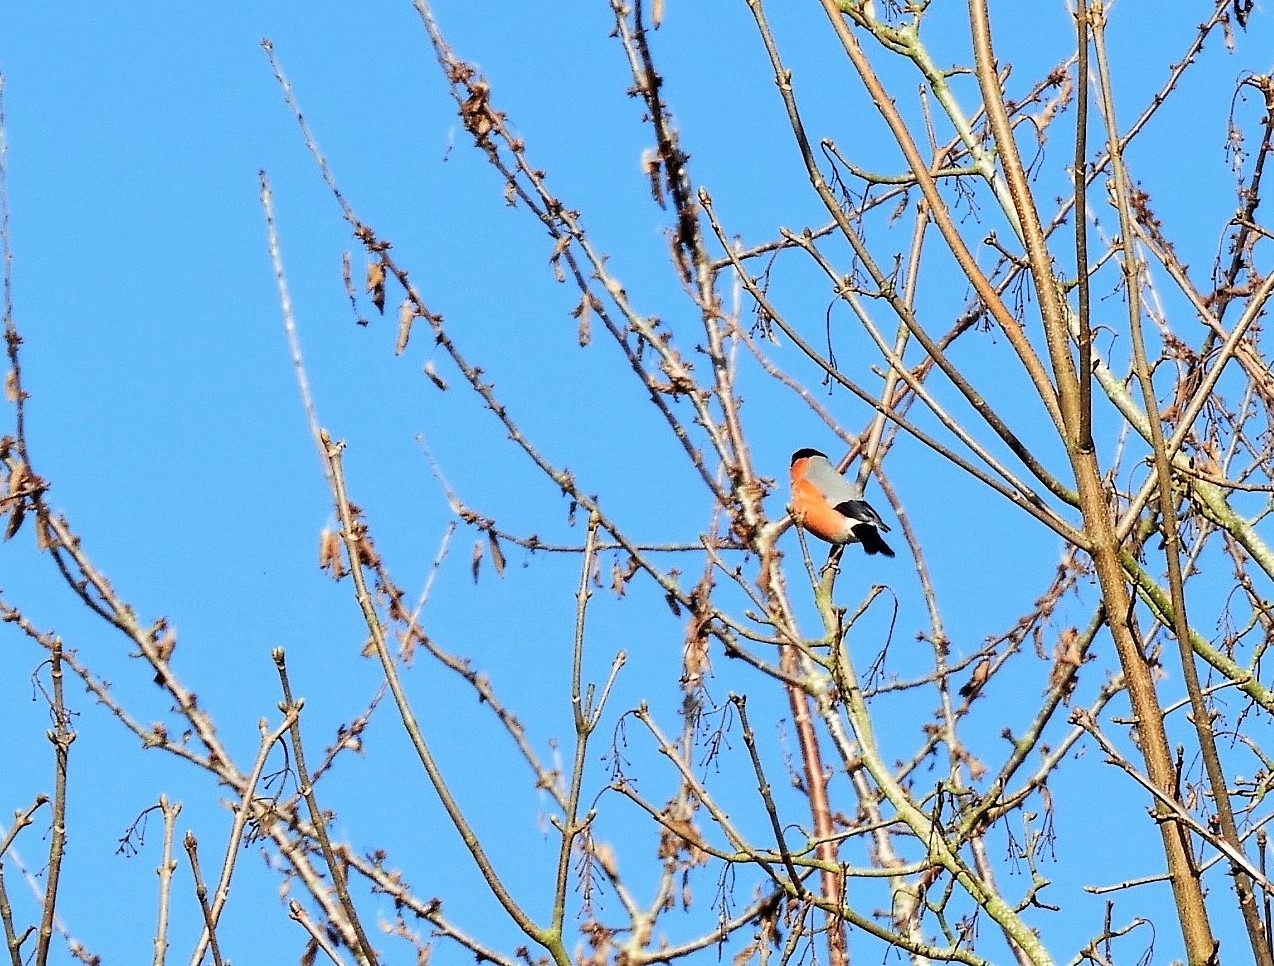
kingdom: Animalia
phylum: Chordata
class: Aves
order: Passeriformes
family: Fringillidae
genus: Pyrrhula
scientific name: Pyrrhula pyrrhula
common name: Dompap
